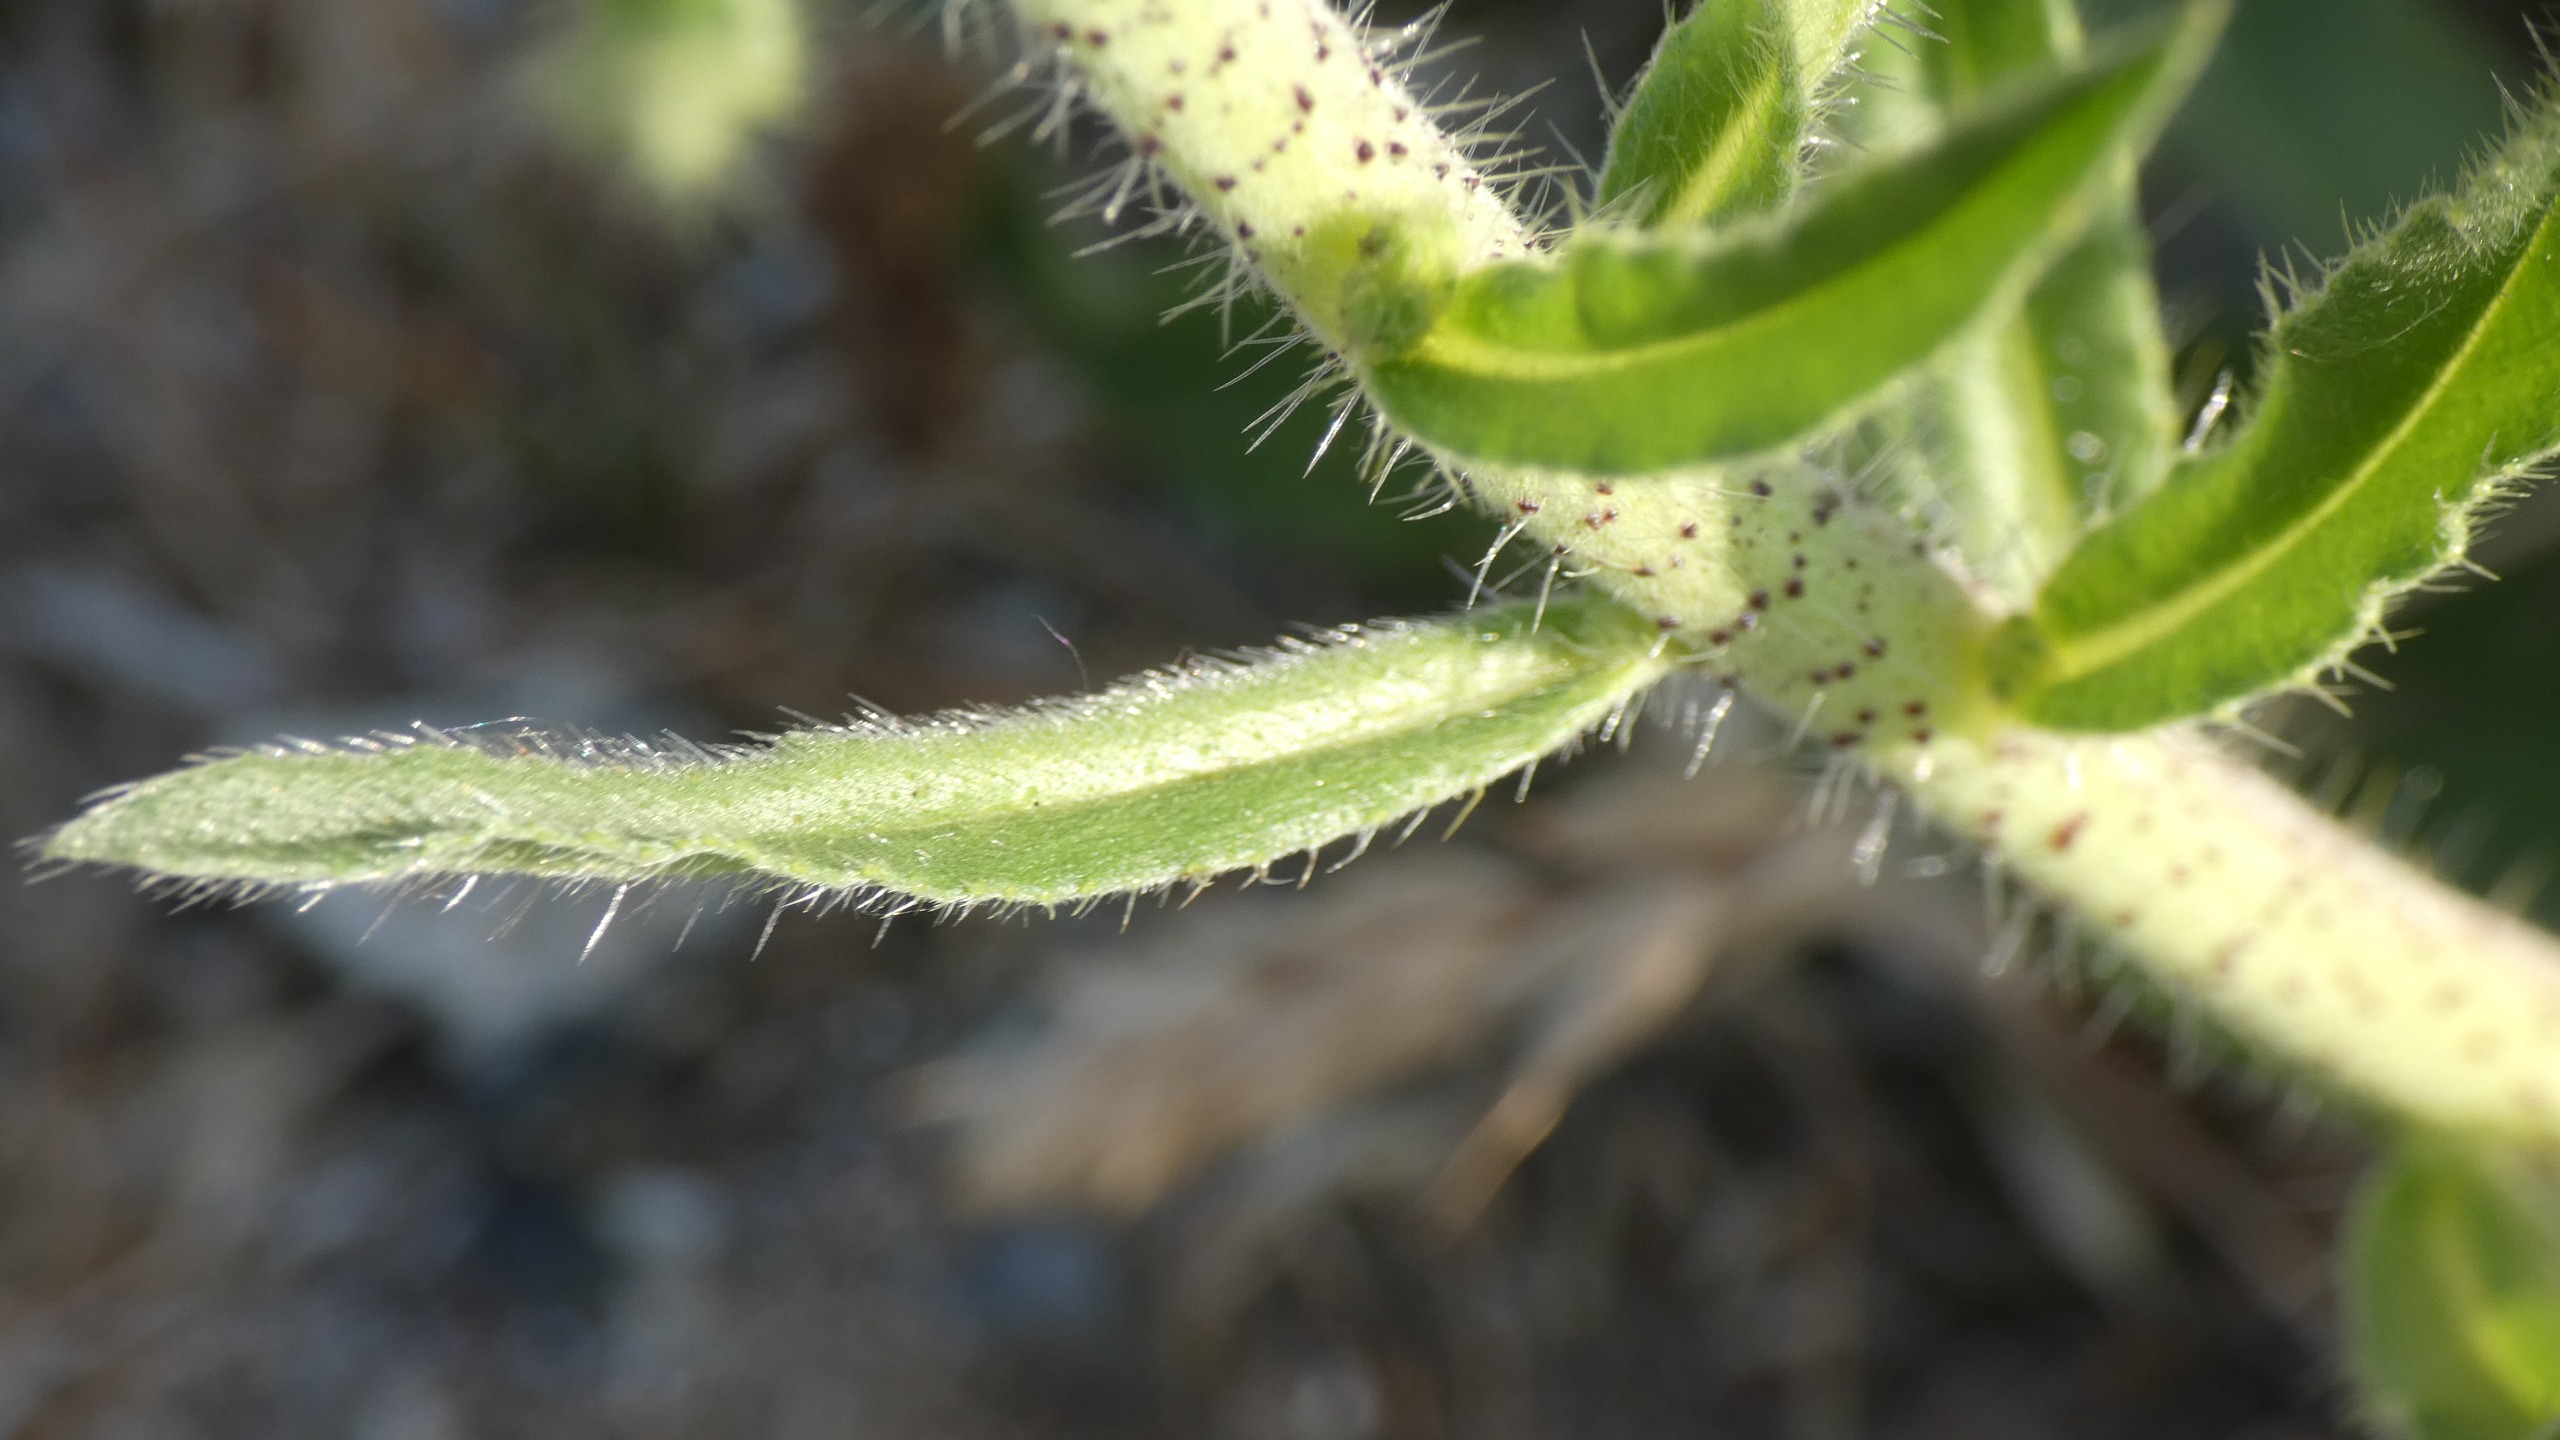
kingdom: Plantae
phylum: Tracheophyta
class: Magnoliopsida
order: Boraginales
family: Boraginaceae
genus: Echium
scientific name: Echium vulgare
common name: Slangehoved
